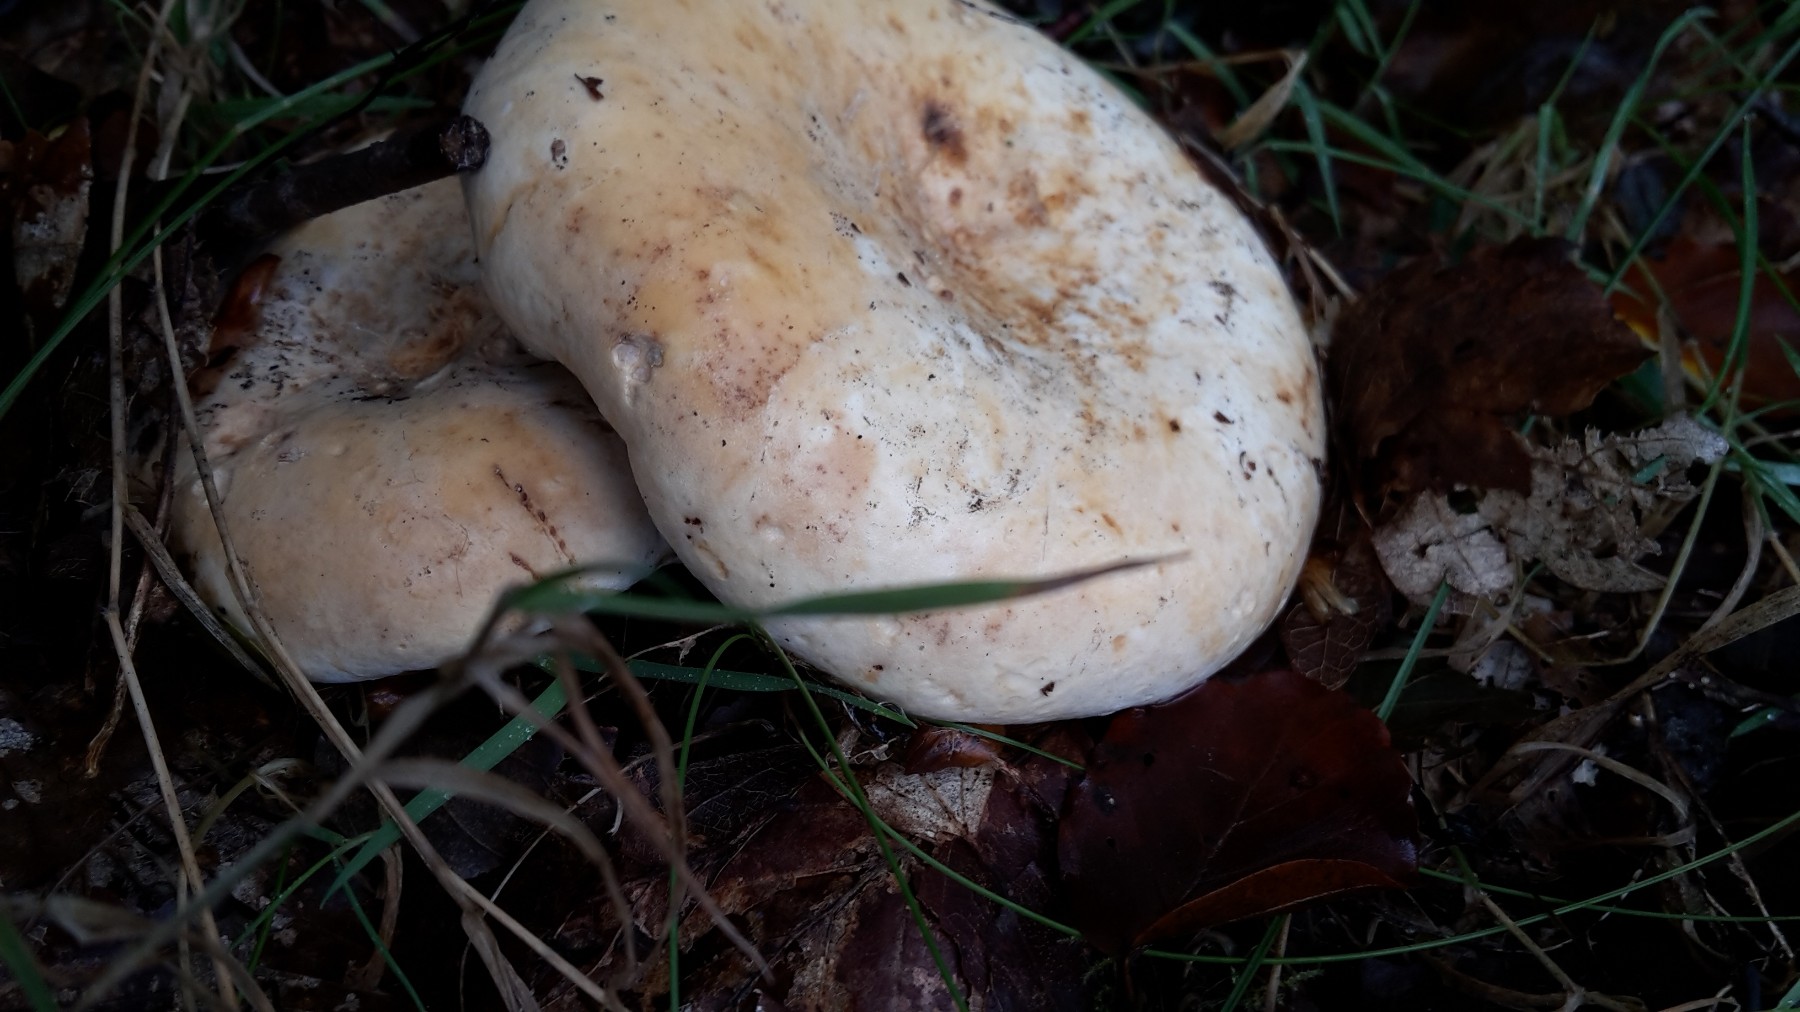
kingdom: Fungi
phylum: Basidiomycota
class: Agaricomycetes
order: Russulales
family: Russulaceae
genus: Lactifluus
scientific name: Lactifluus bertillonii
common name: blødfiltet mælkehat
